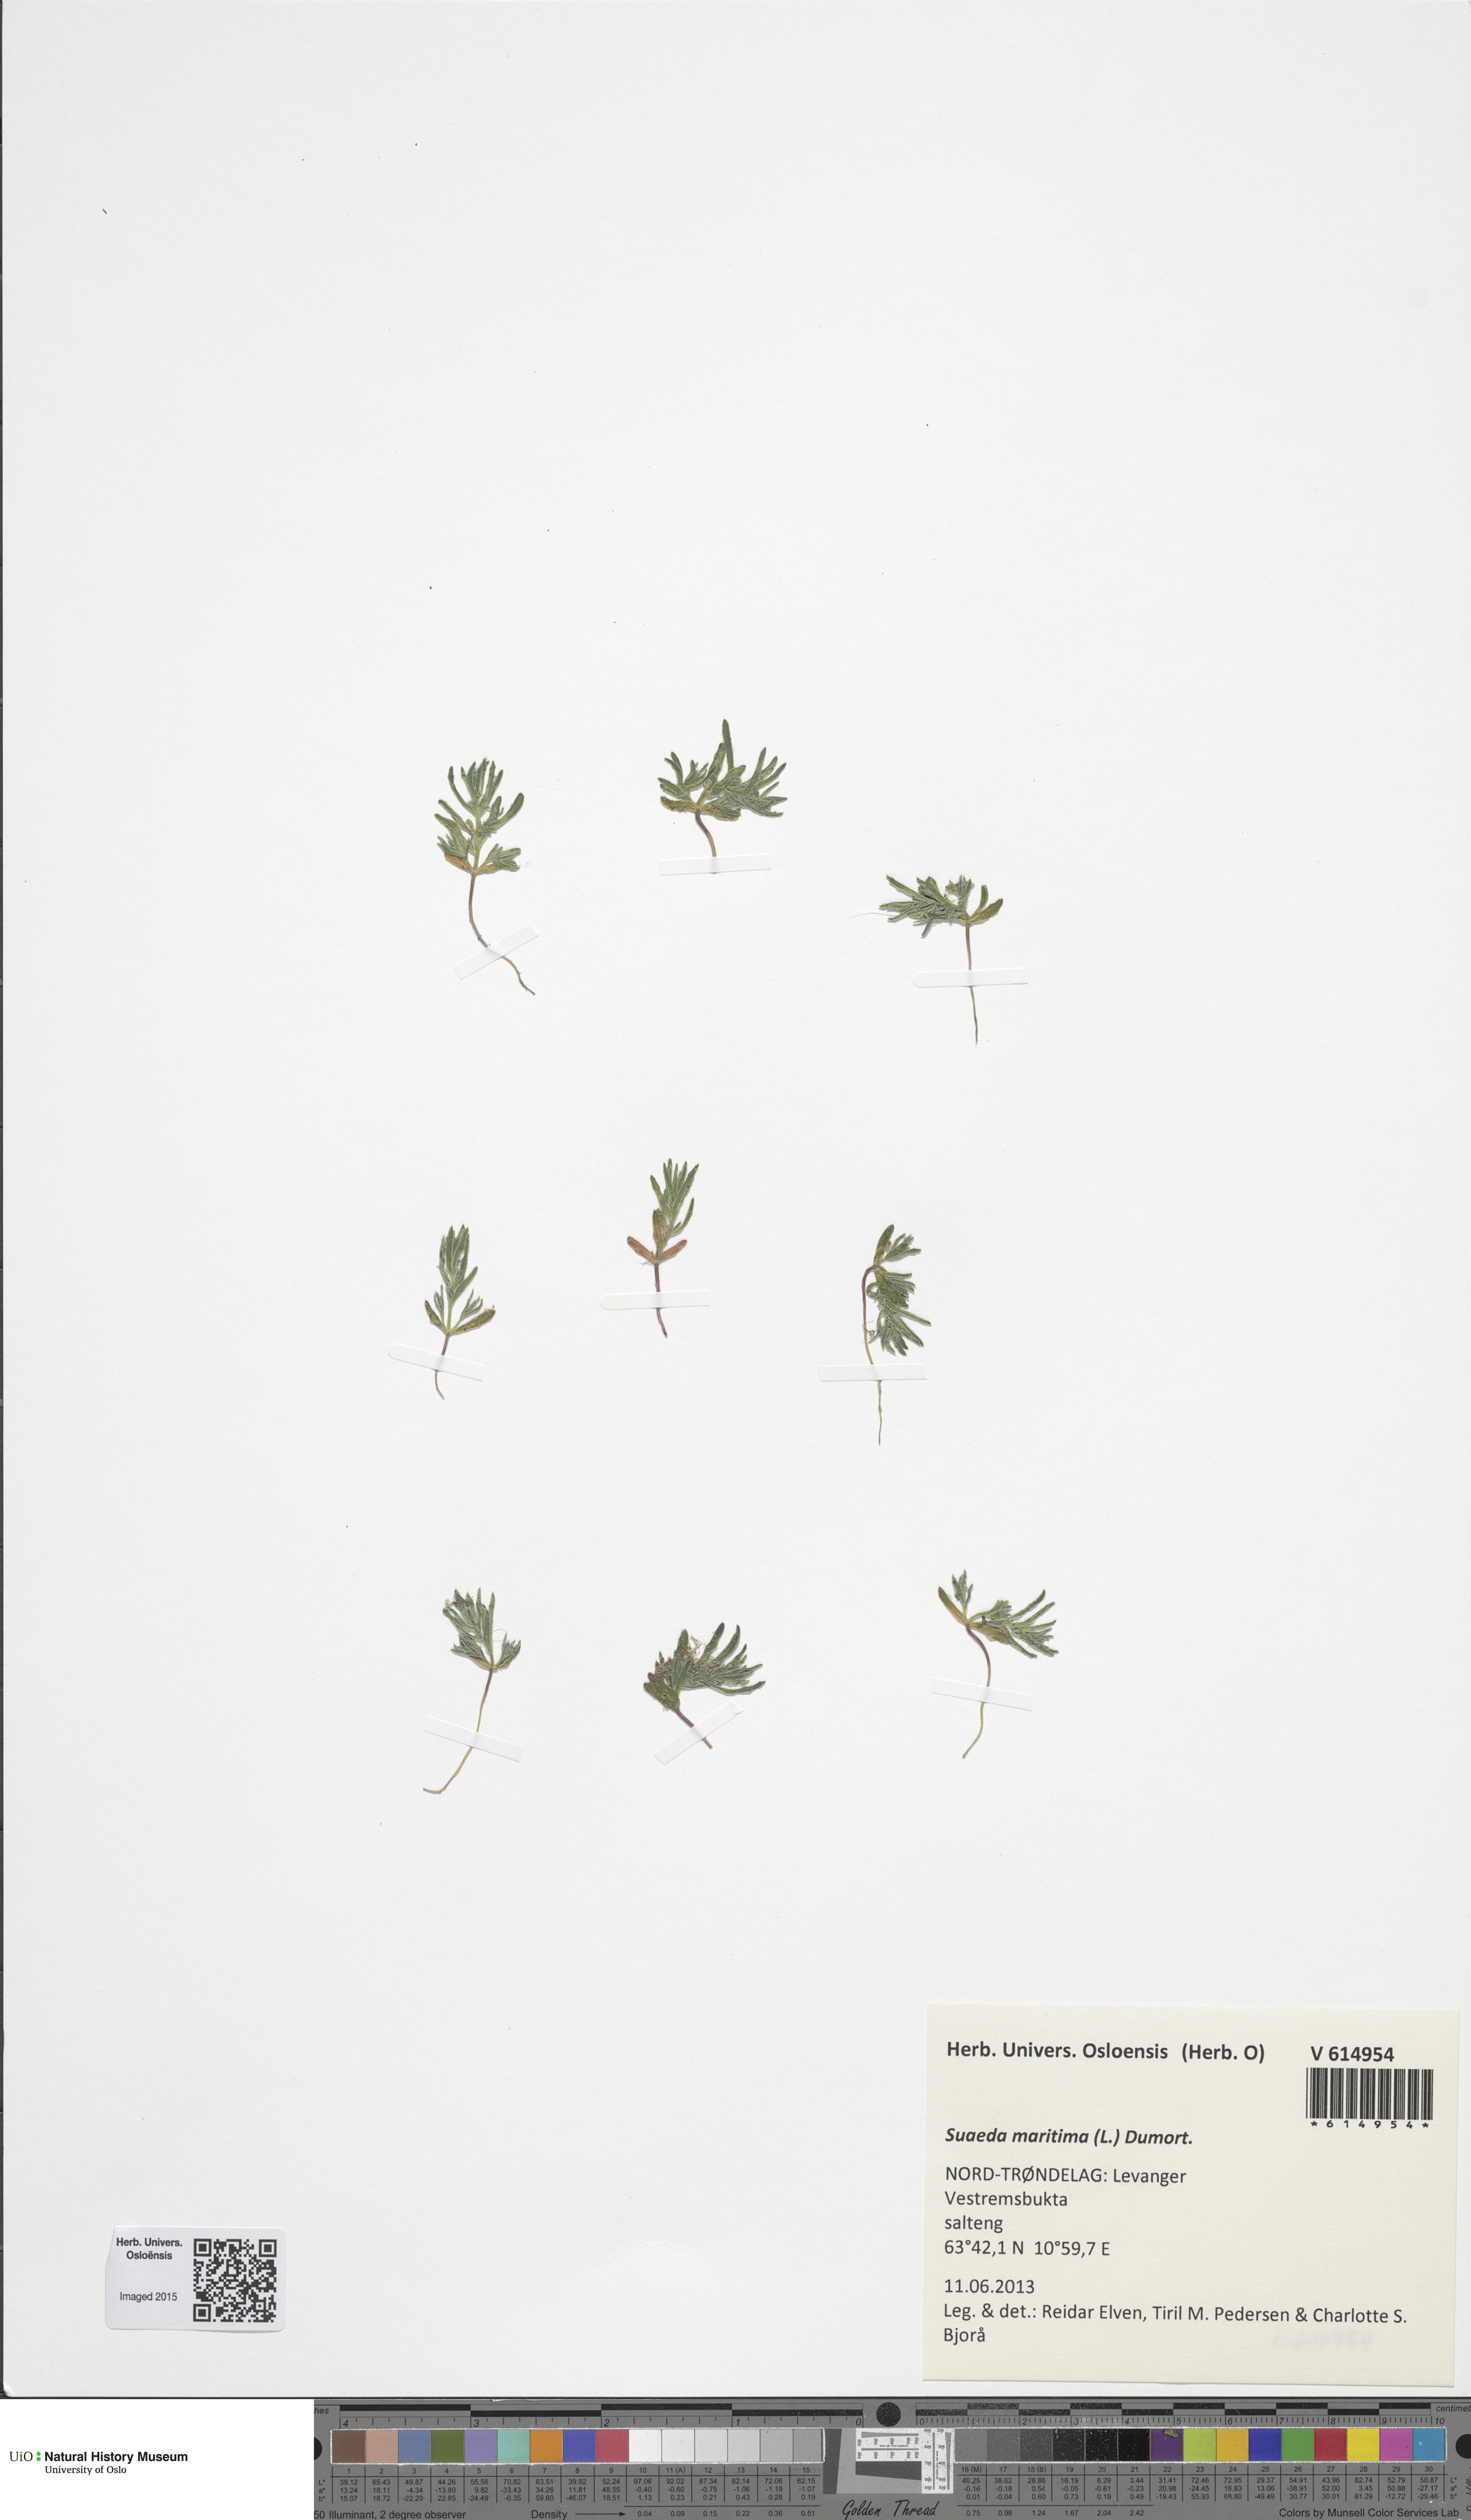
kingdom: Plantae
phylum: Tracheophyta
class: Magnoliopsida
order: Caryophyllales
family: Amaranthaceae
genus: Suaeda
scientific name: Suaeda maritima
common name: Annual sea-blite
